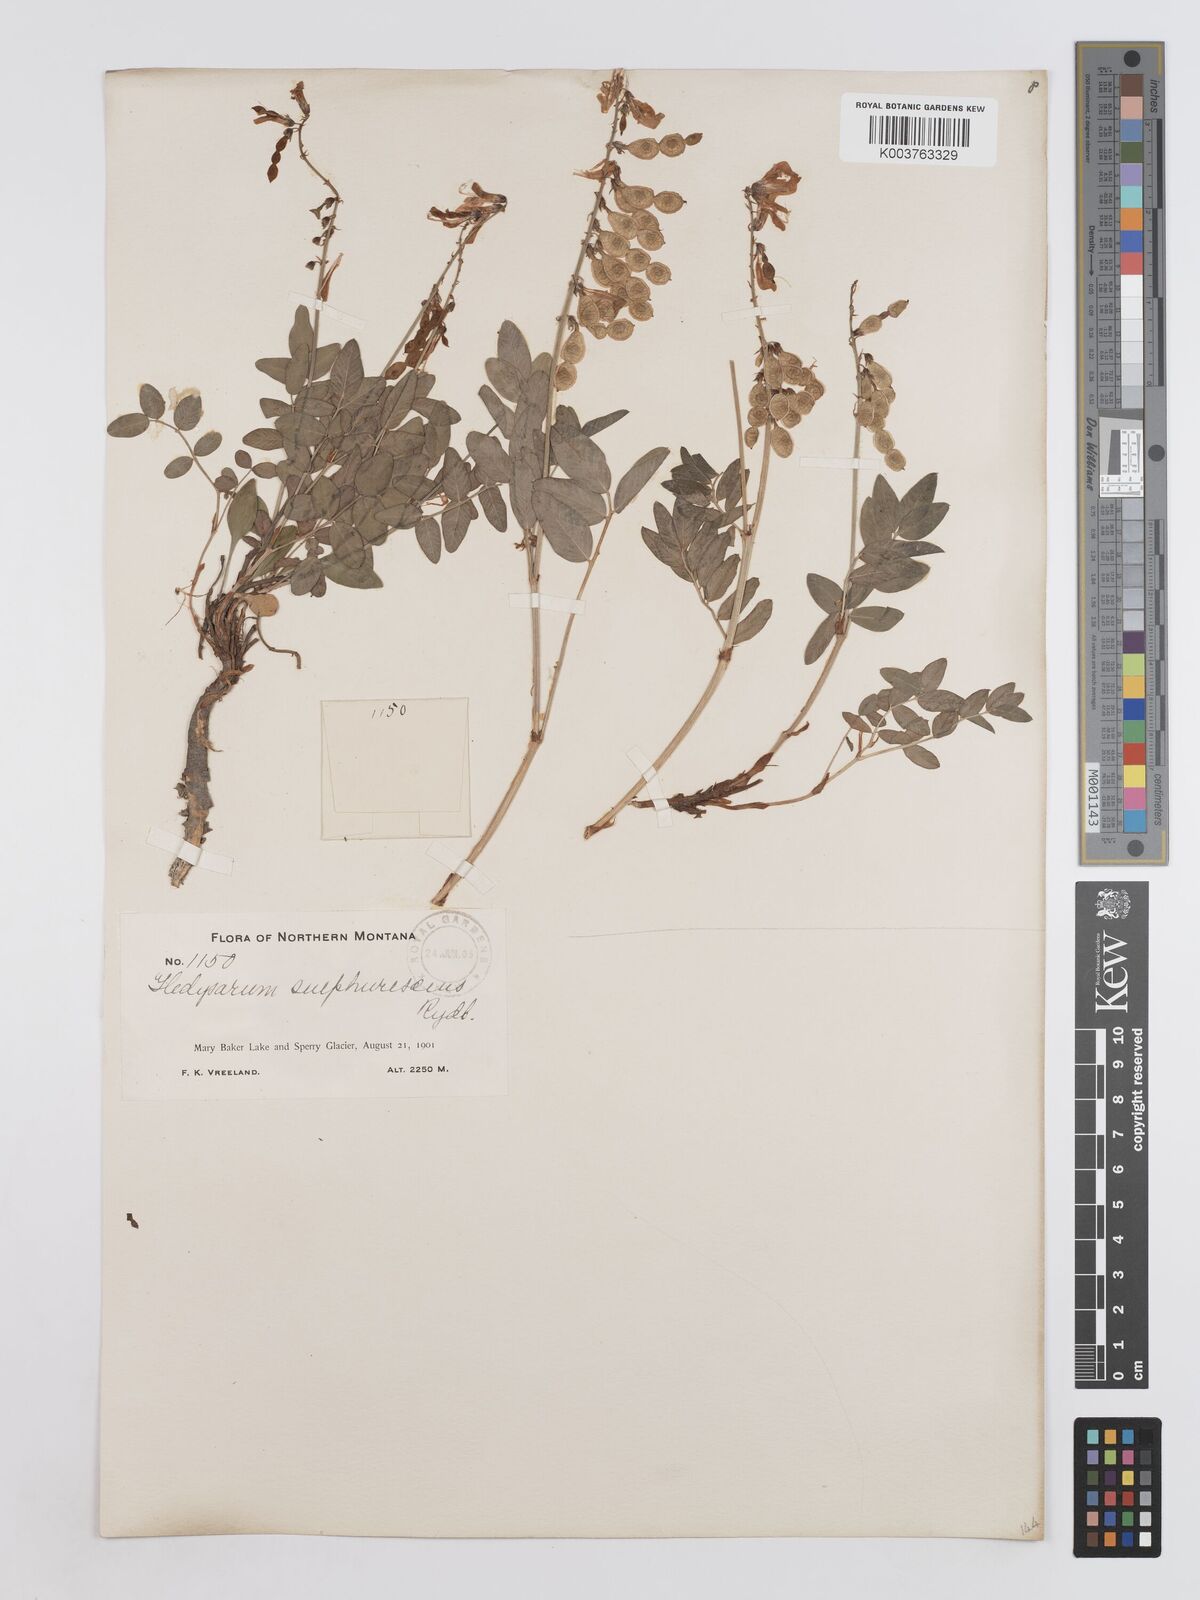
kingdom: Plantae
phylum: Tracheophyta
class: Magnoliopsida
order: Fabales
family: Fabaceae
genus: Hedysarum
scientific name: Hedysarum sulphurescens
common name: Sulphur hedysarum
